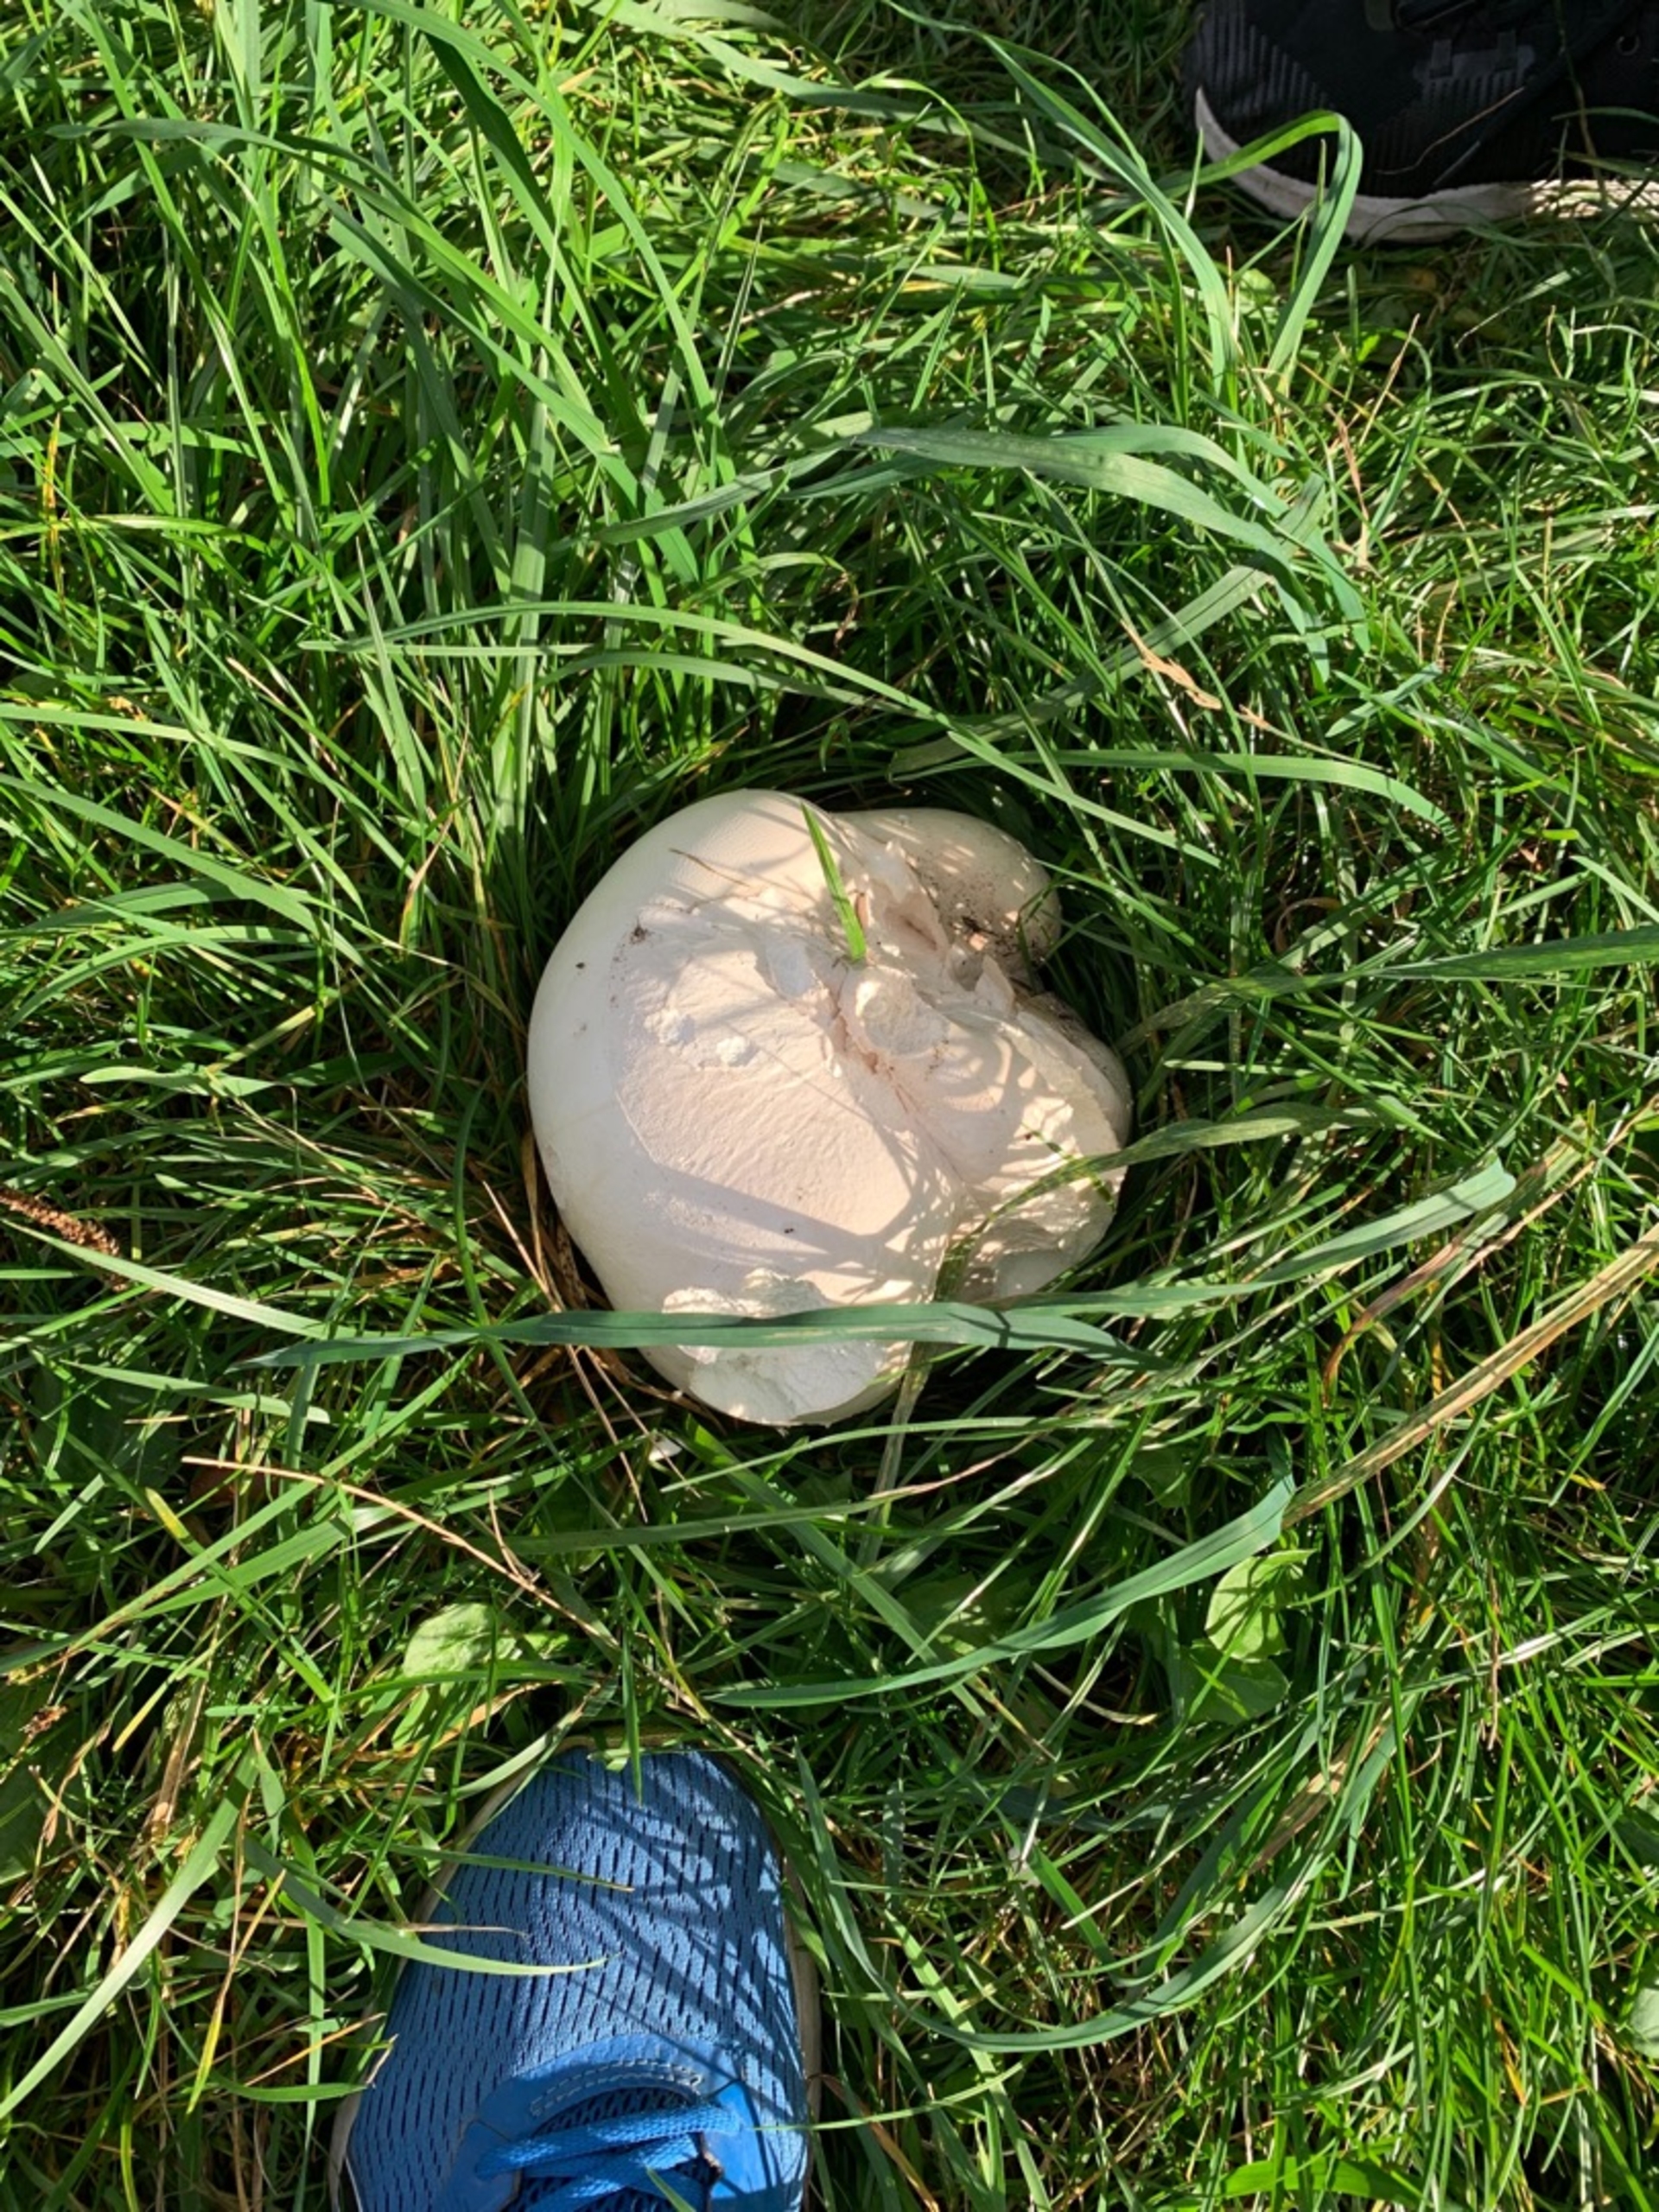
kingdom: Fungi
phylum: Basidiomycota
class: Agaricomycetes
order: Agaricales
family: Lycoperdaceae
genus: Calvatia
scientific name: Calvatia gigantea
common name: Kæmpestøvbold
